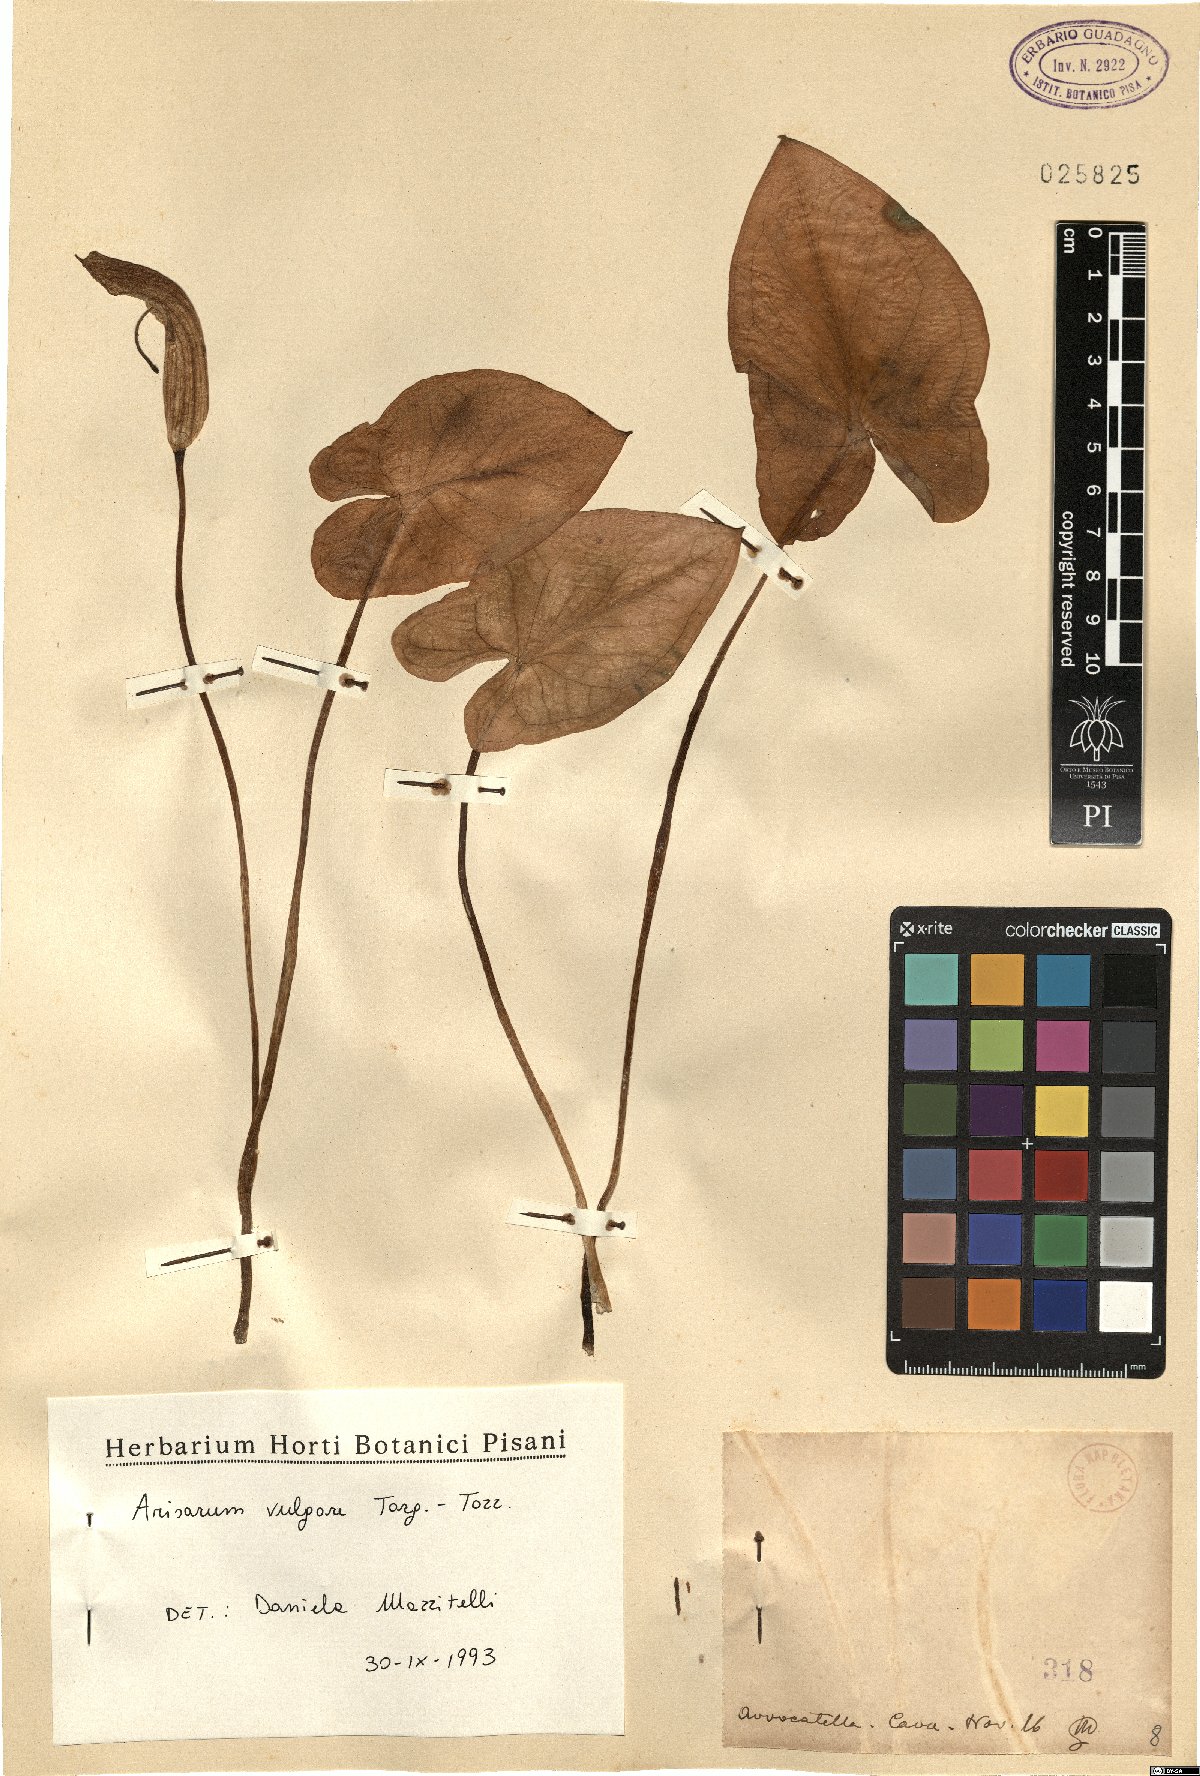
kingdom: Plantae
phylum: Tracheophyta
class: Liliopsida
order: Alismatales
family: Araceae
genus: Arisarum
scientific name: Arisarum vulgare
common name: Common arisarum
